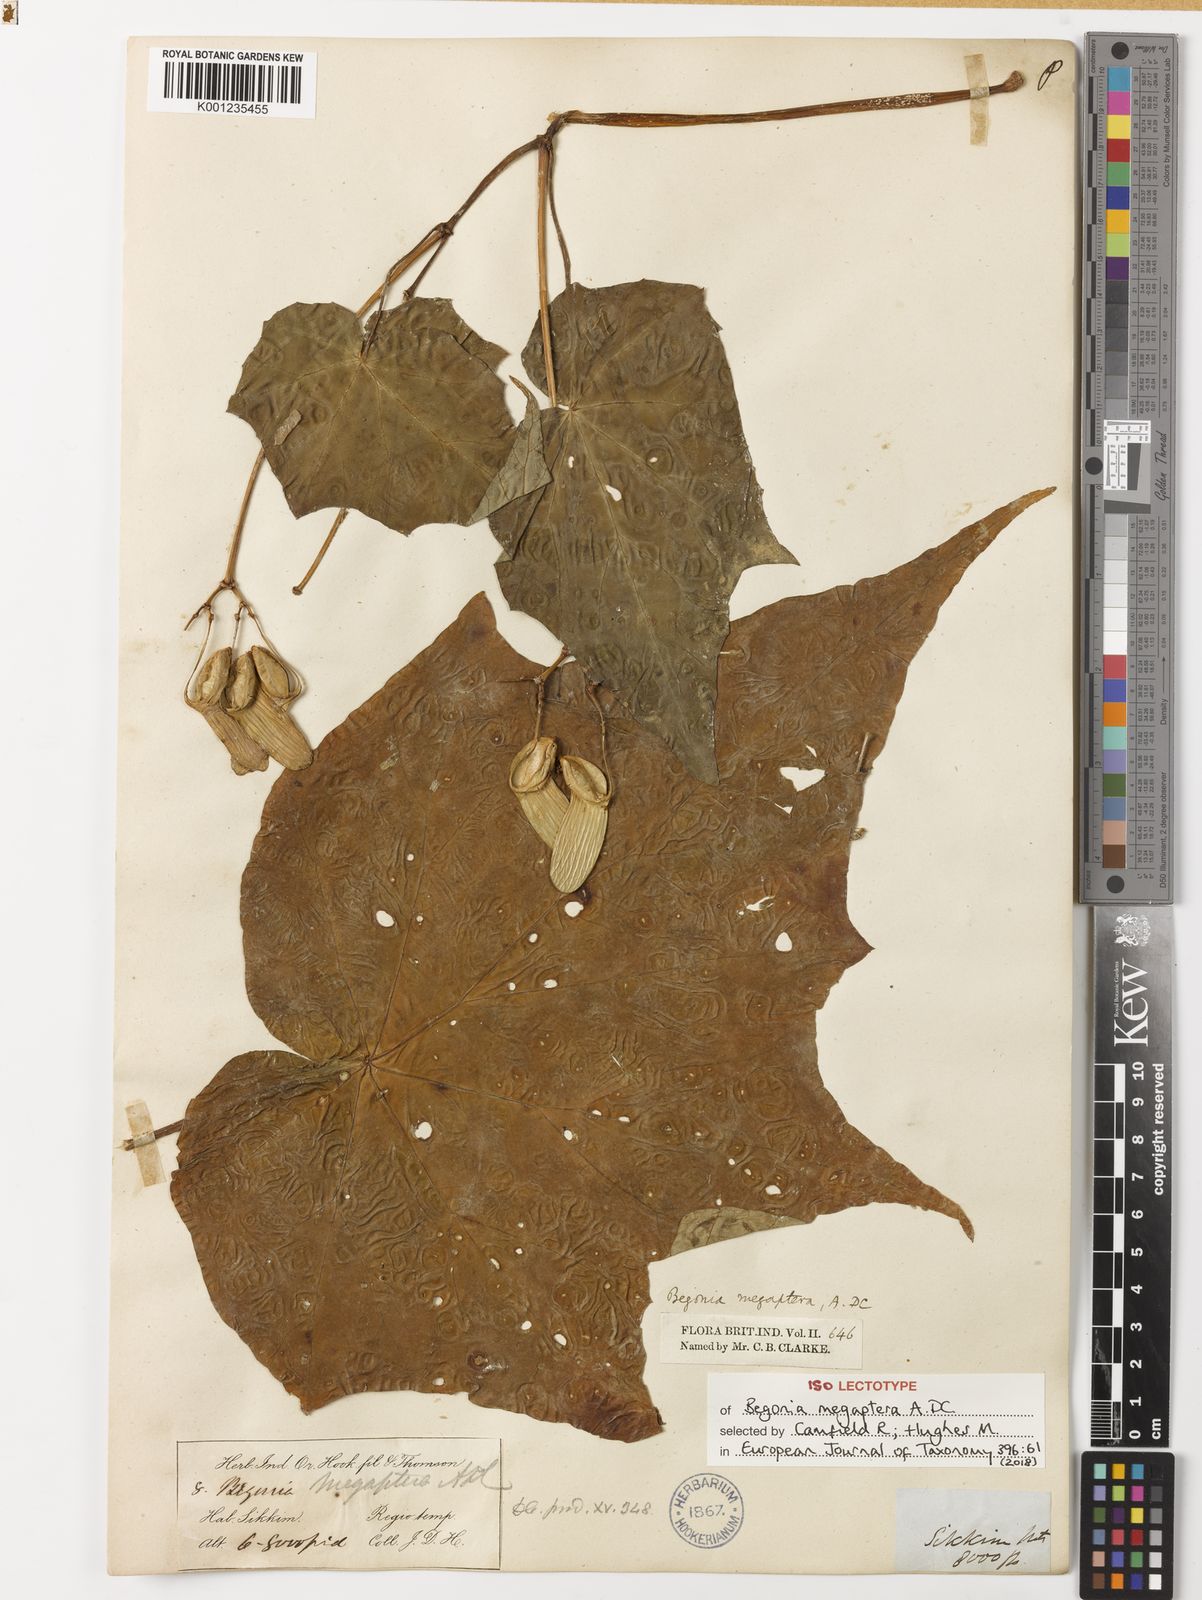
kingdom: Plantae
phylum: Tracheophyta
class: Magnoliopsida
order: Cucurbitales
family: Begoniaceae
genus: Begonia
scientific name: Begonia megaptera
